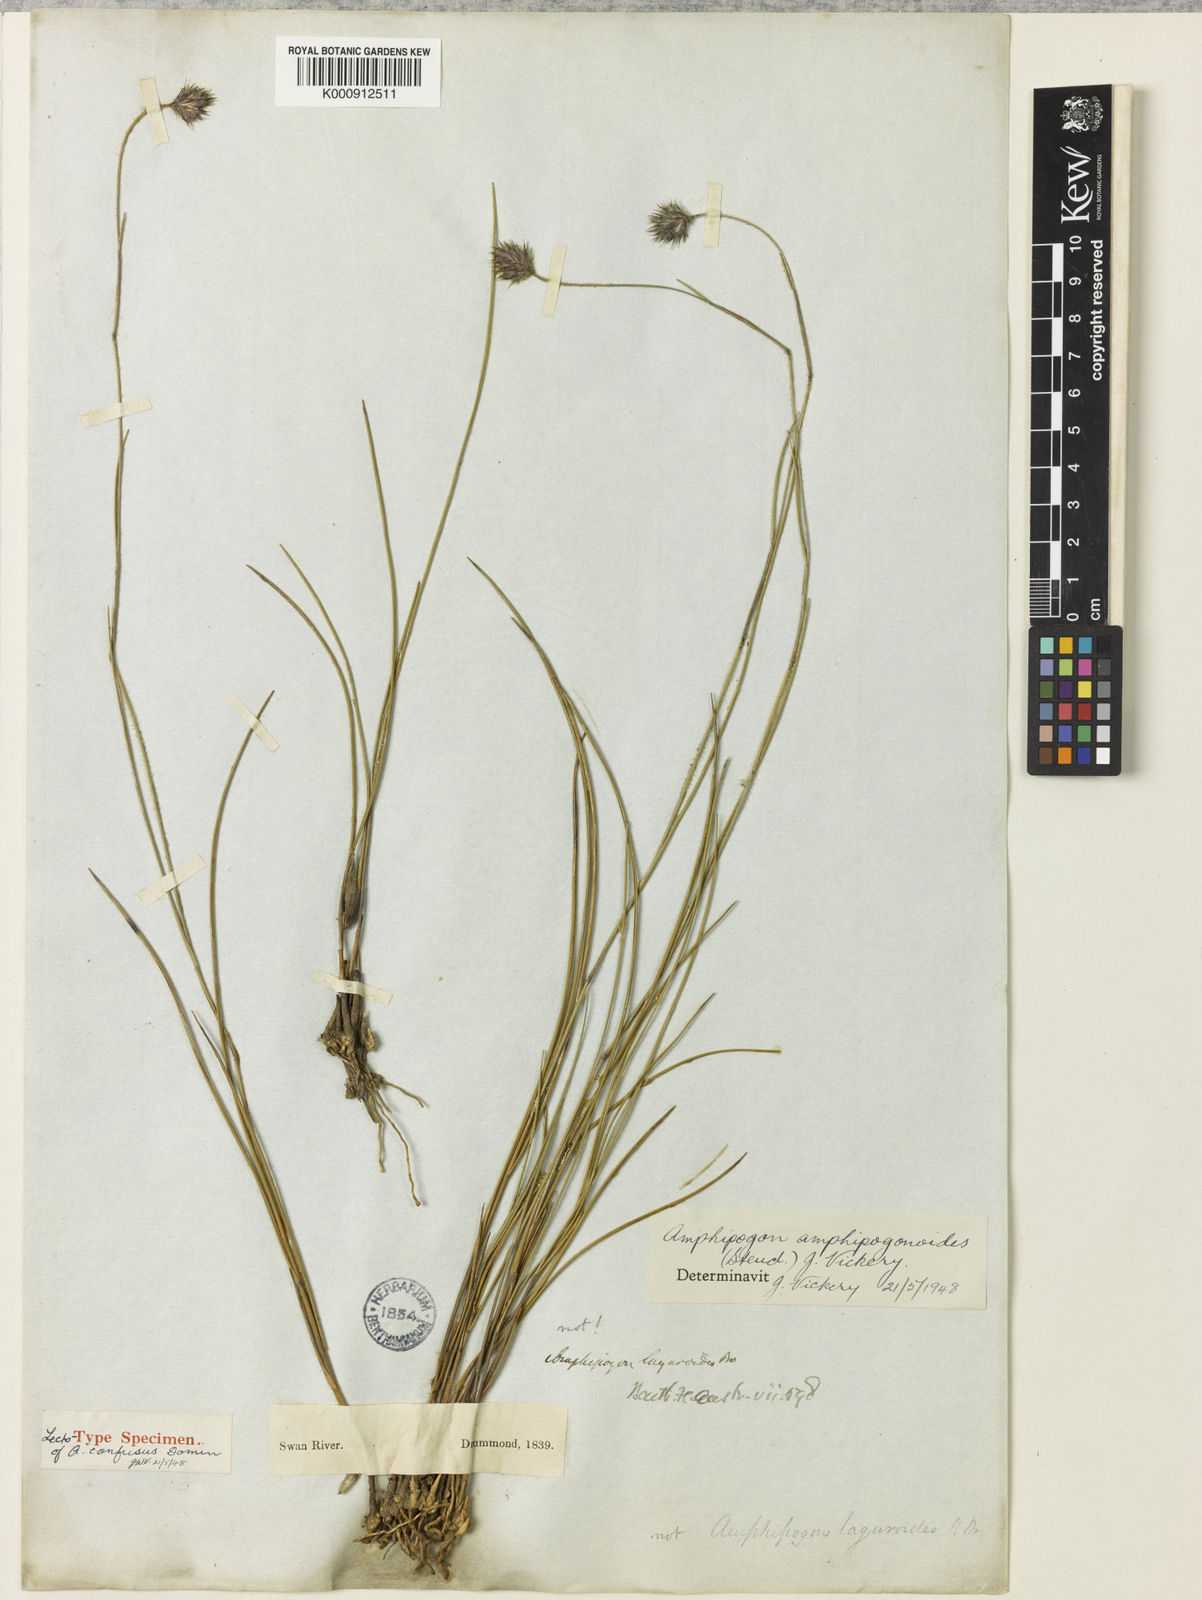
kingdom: Plantae
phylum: Tracheophyta
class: Liliopsida
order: Poales
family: Poaceae
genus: Amphipogon
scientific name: Amphipogon amphipogonoides
